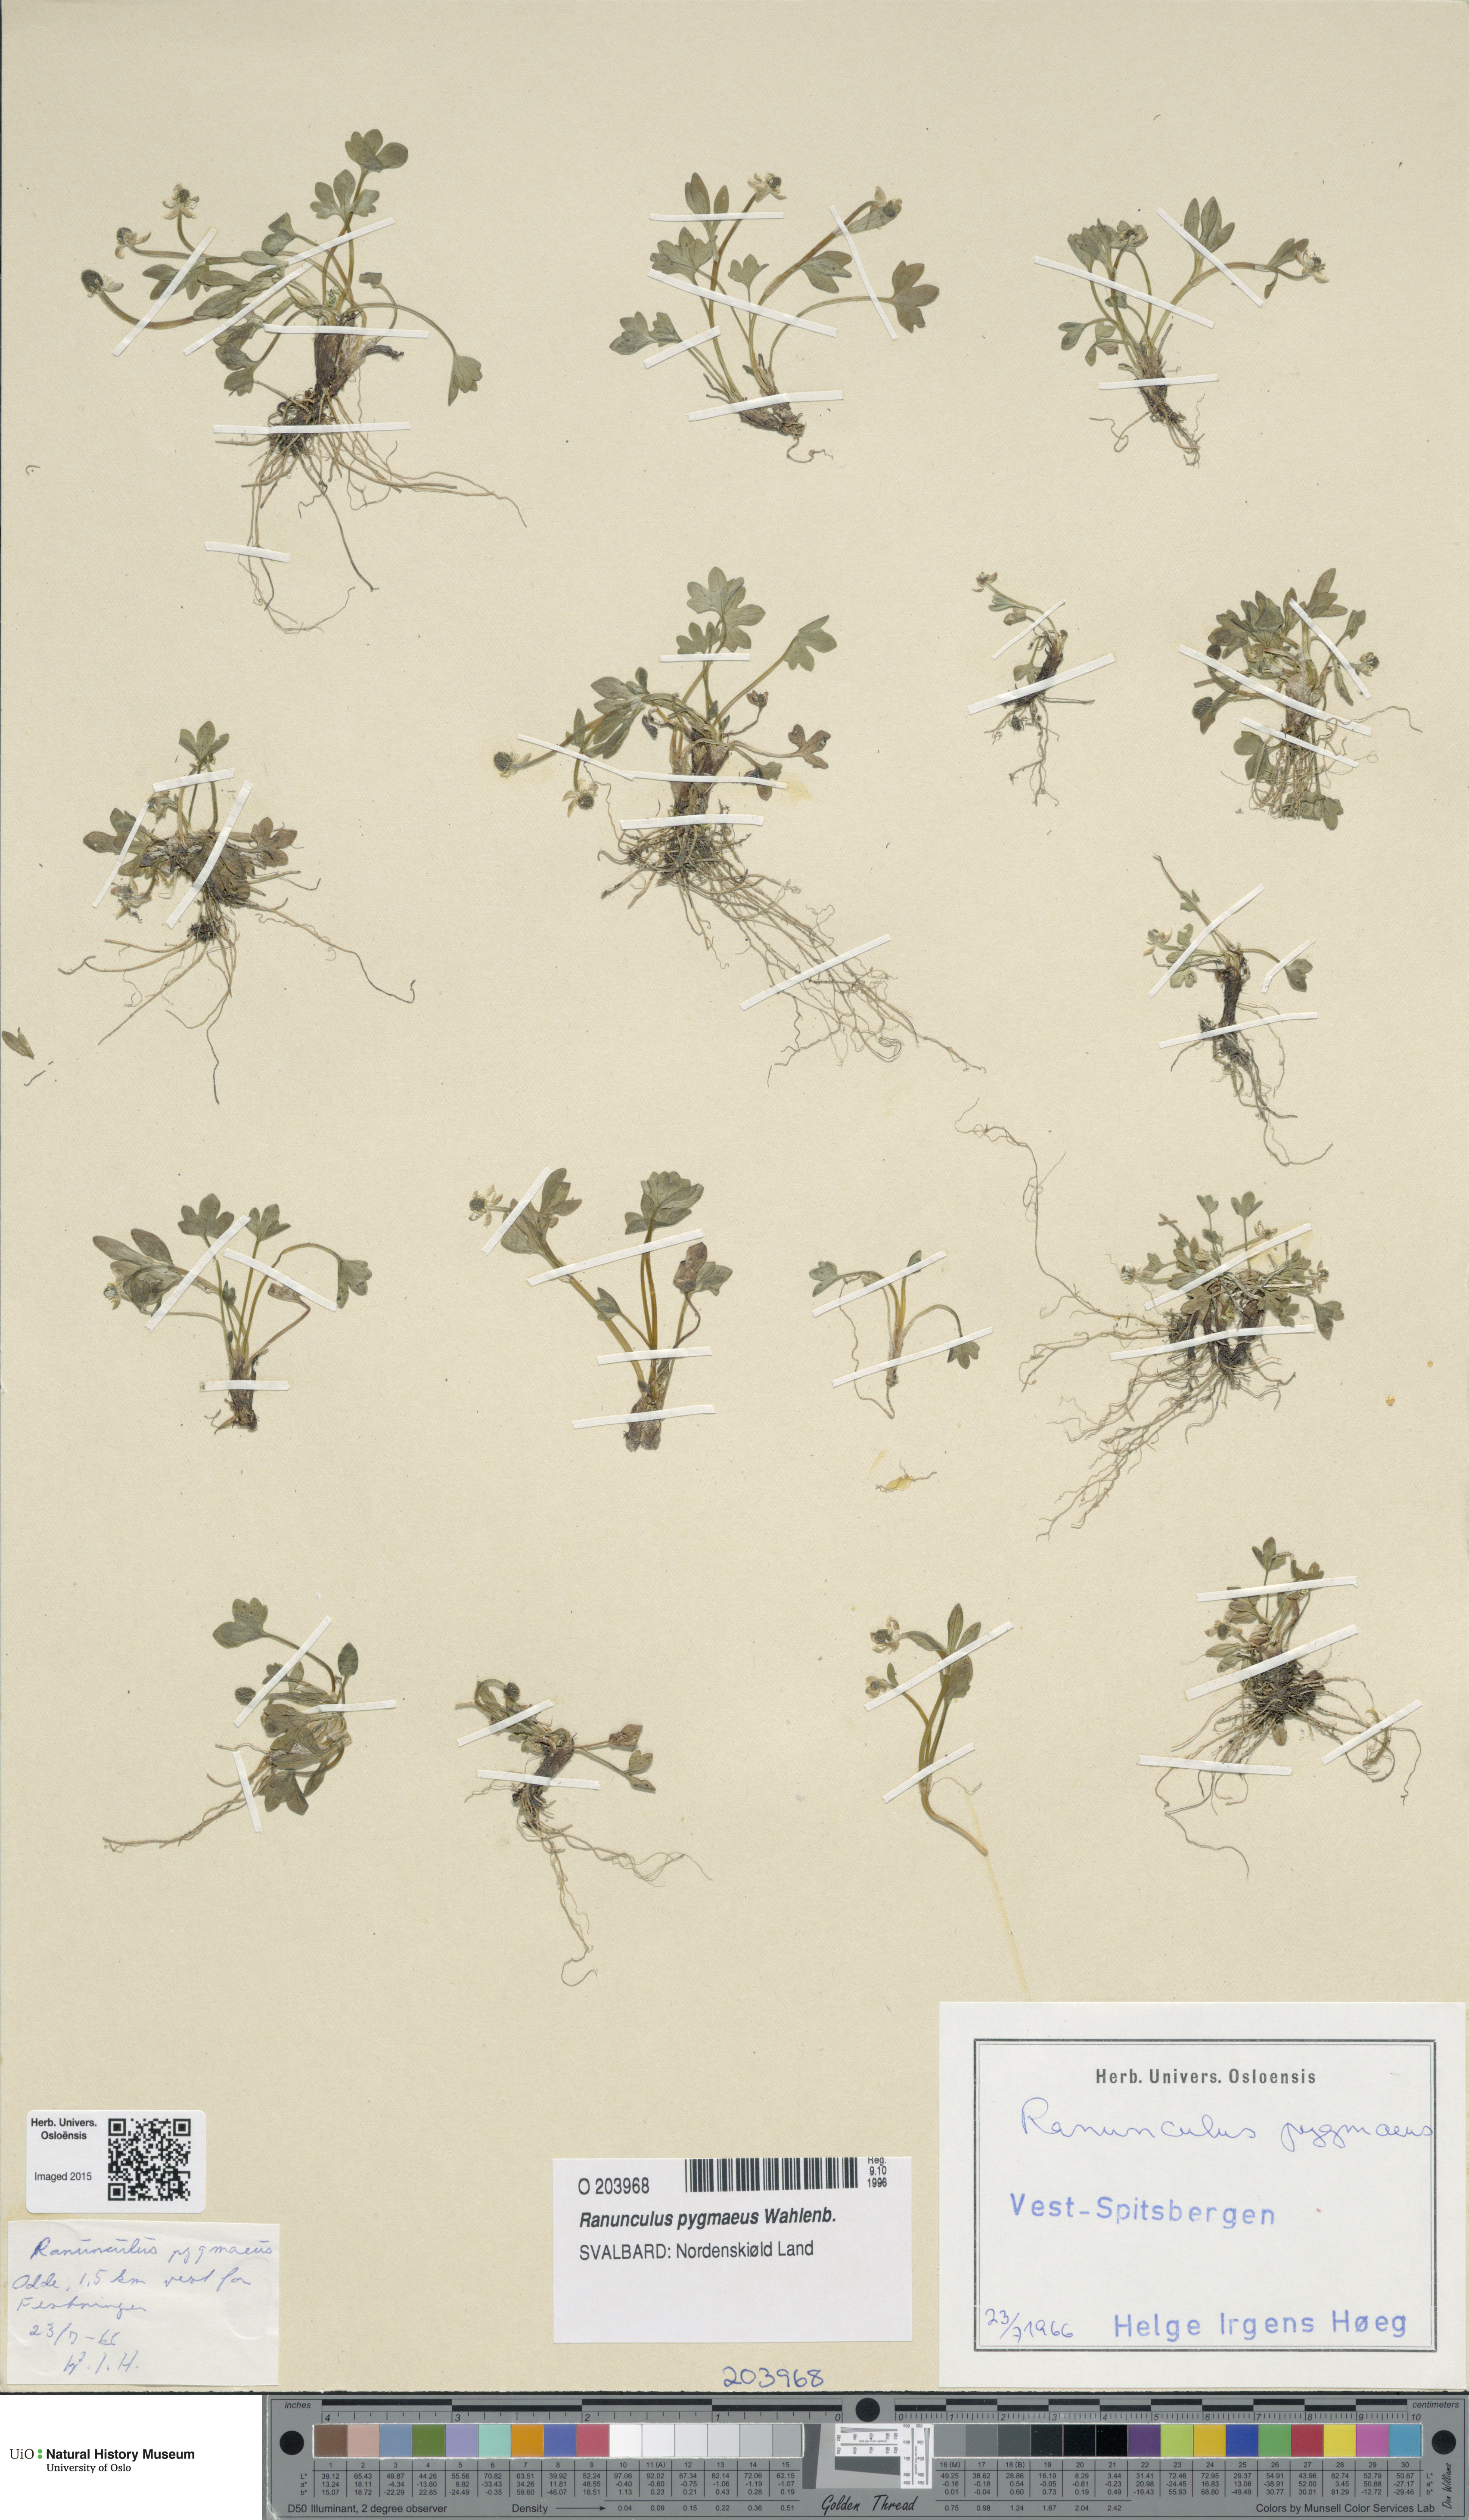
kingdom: Plantae
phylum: Tracheophyta
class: Magnoliopsida
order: Ranunculales
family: Ranunculaceae
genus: Ranunculus
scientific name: Ranunculus pygmaeus
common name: Dwarf buttercup
